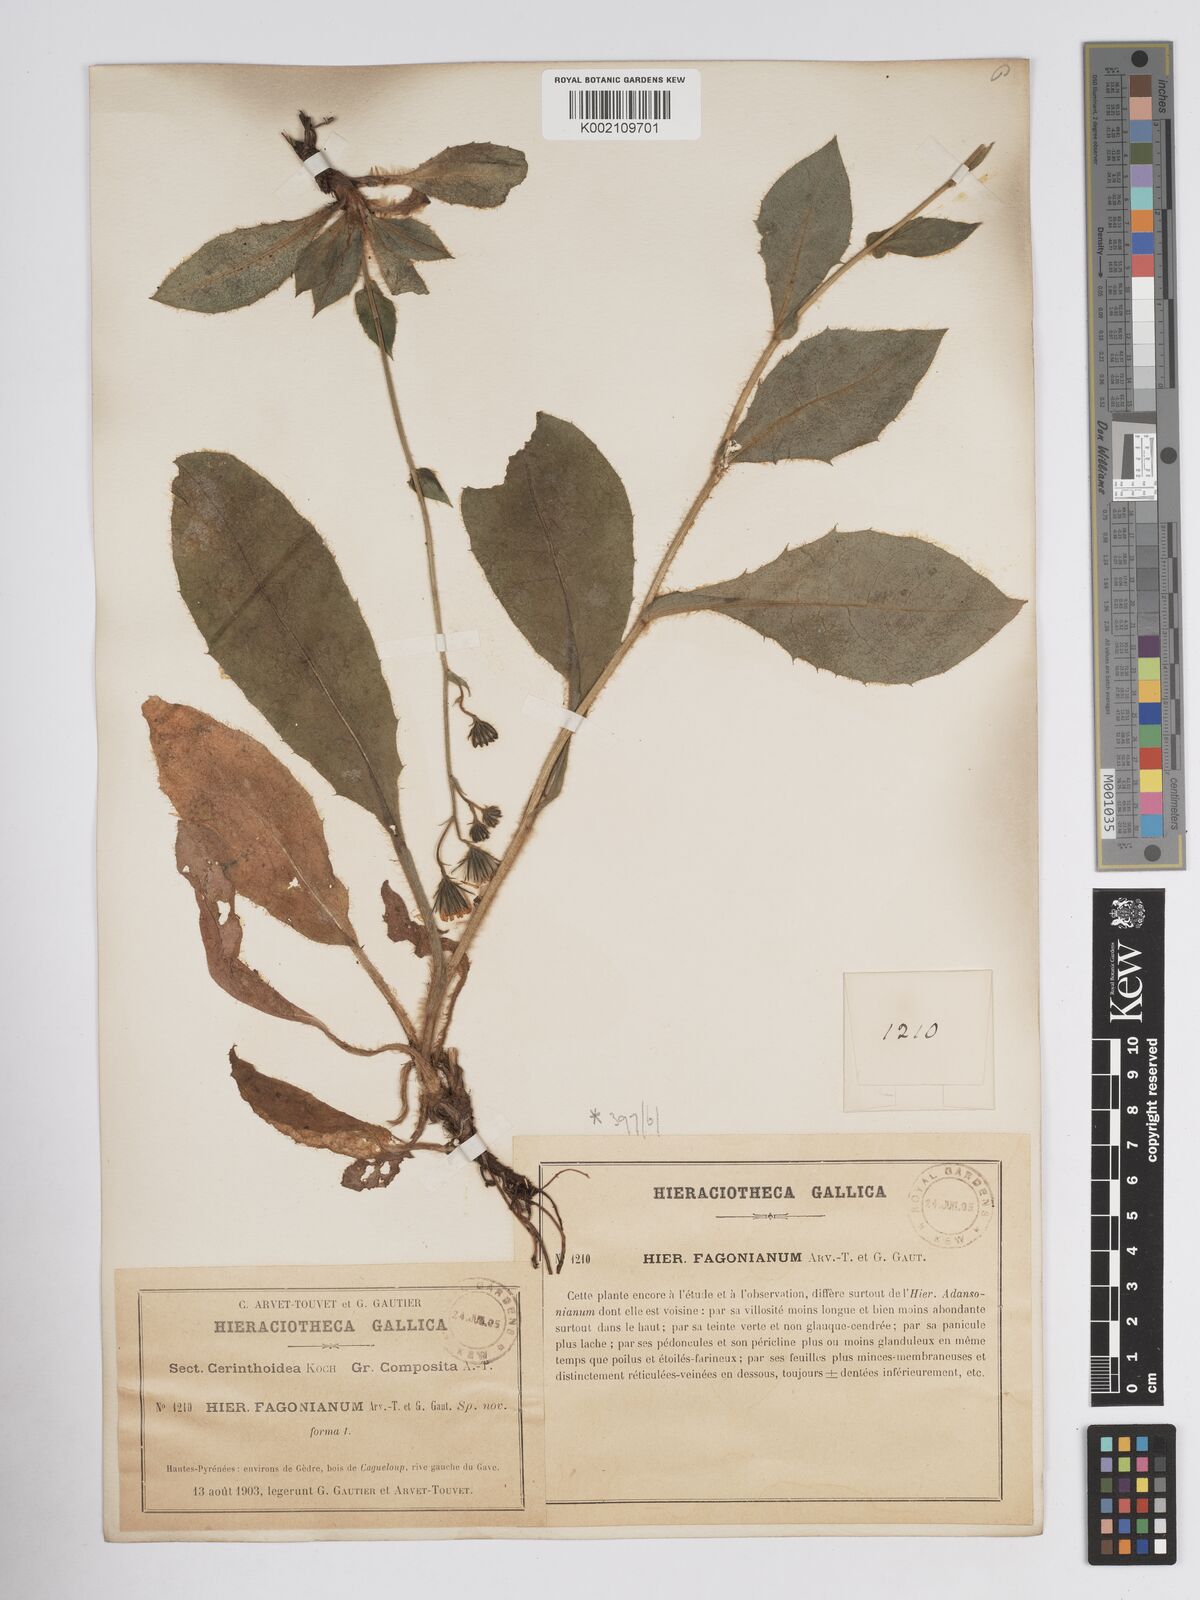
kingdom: Plantae
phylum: Tracheophyta
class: Magnoliopsida
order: Asterales
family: Asteraceae
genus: Crepis
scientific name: Crepis pyrenaica
